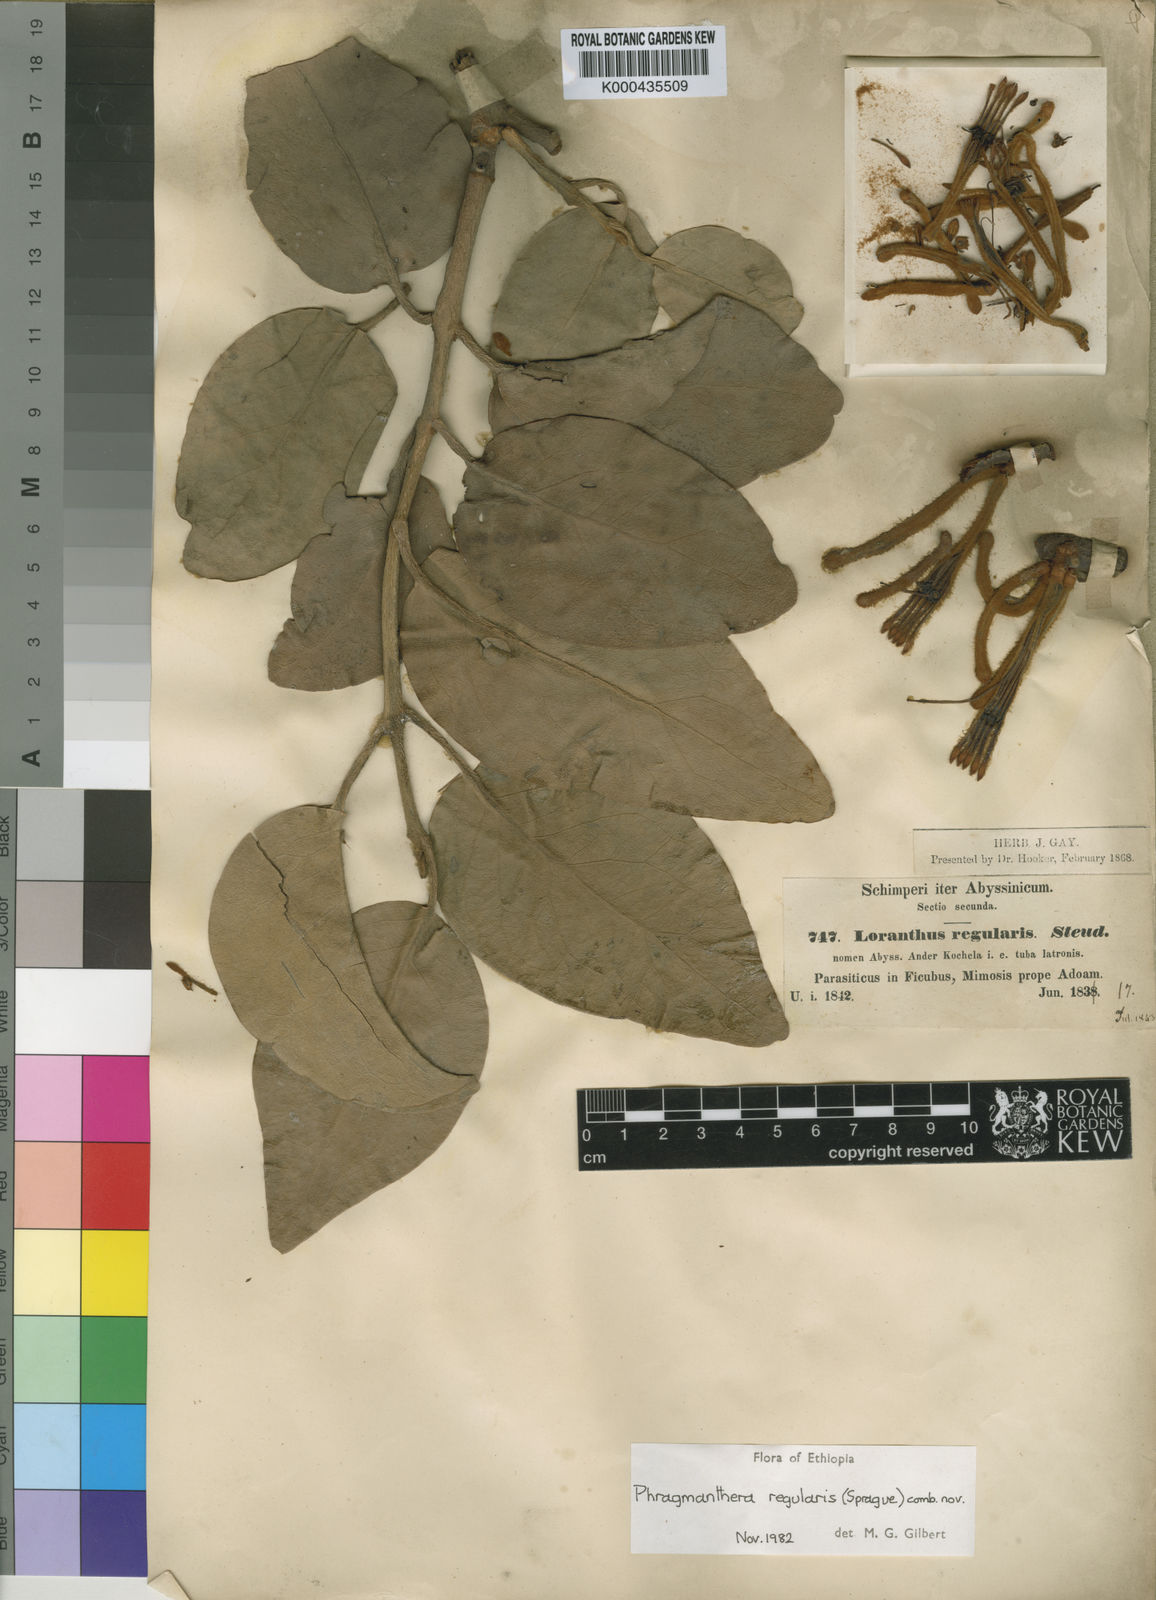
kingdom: Plantae
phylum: Tracheophyta
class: Magnoliopsida
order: Santalales
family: Loranthaceae
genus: Phragmanthera
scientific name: Phragmanthera regularis
